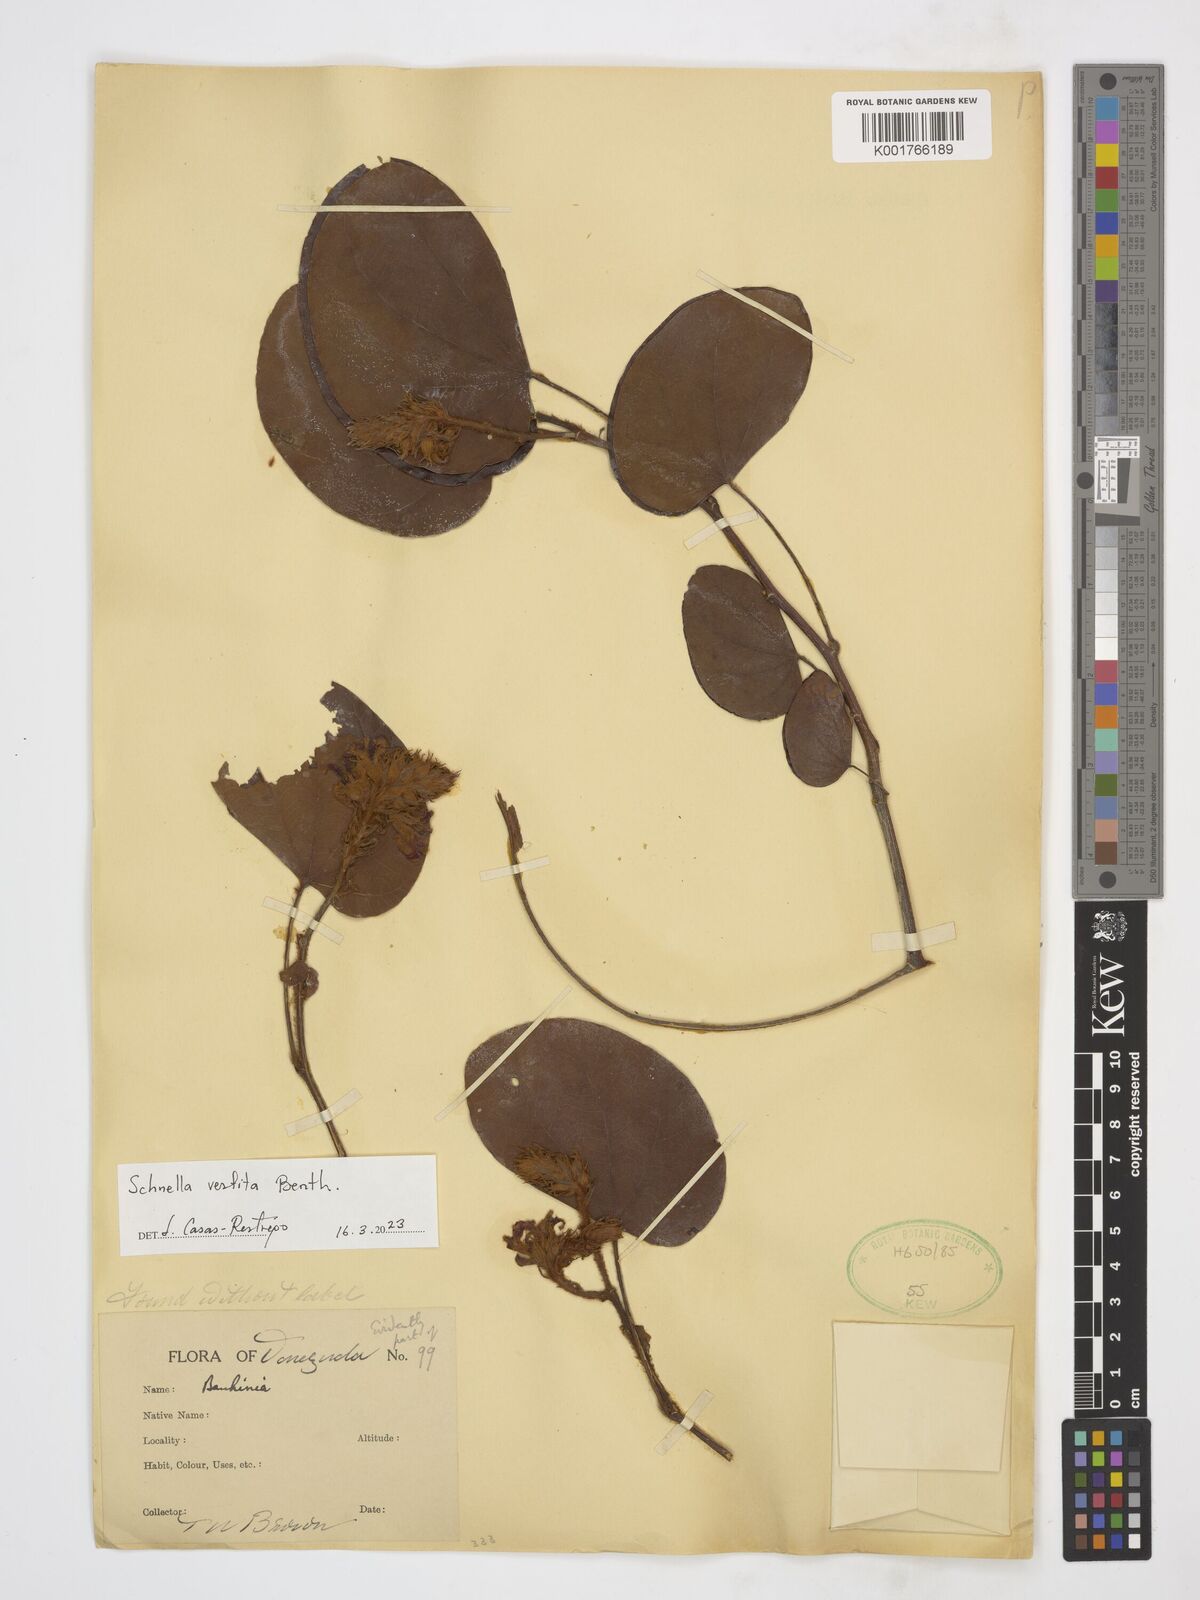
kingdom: Plantae
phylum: Tracheophyta
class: Magnoliopsida
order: Fabales
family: Fabaceae
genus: Schnella
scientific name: Schnella vestita
